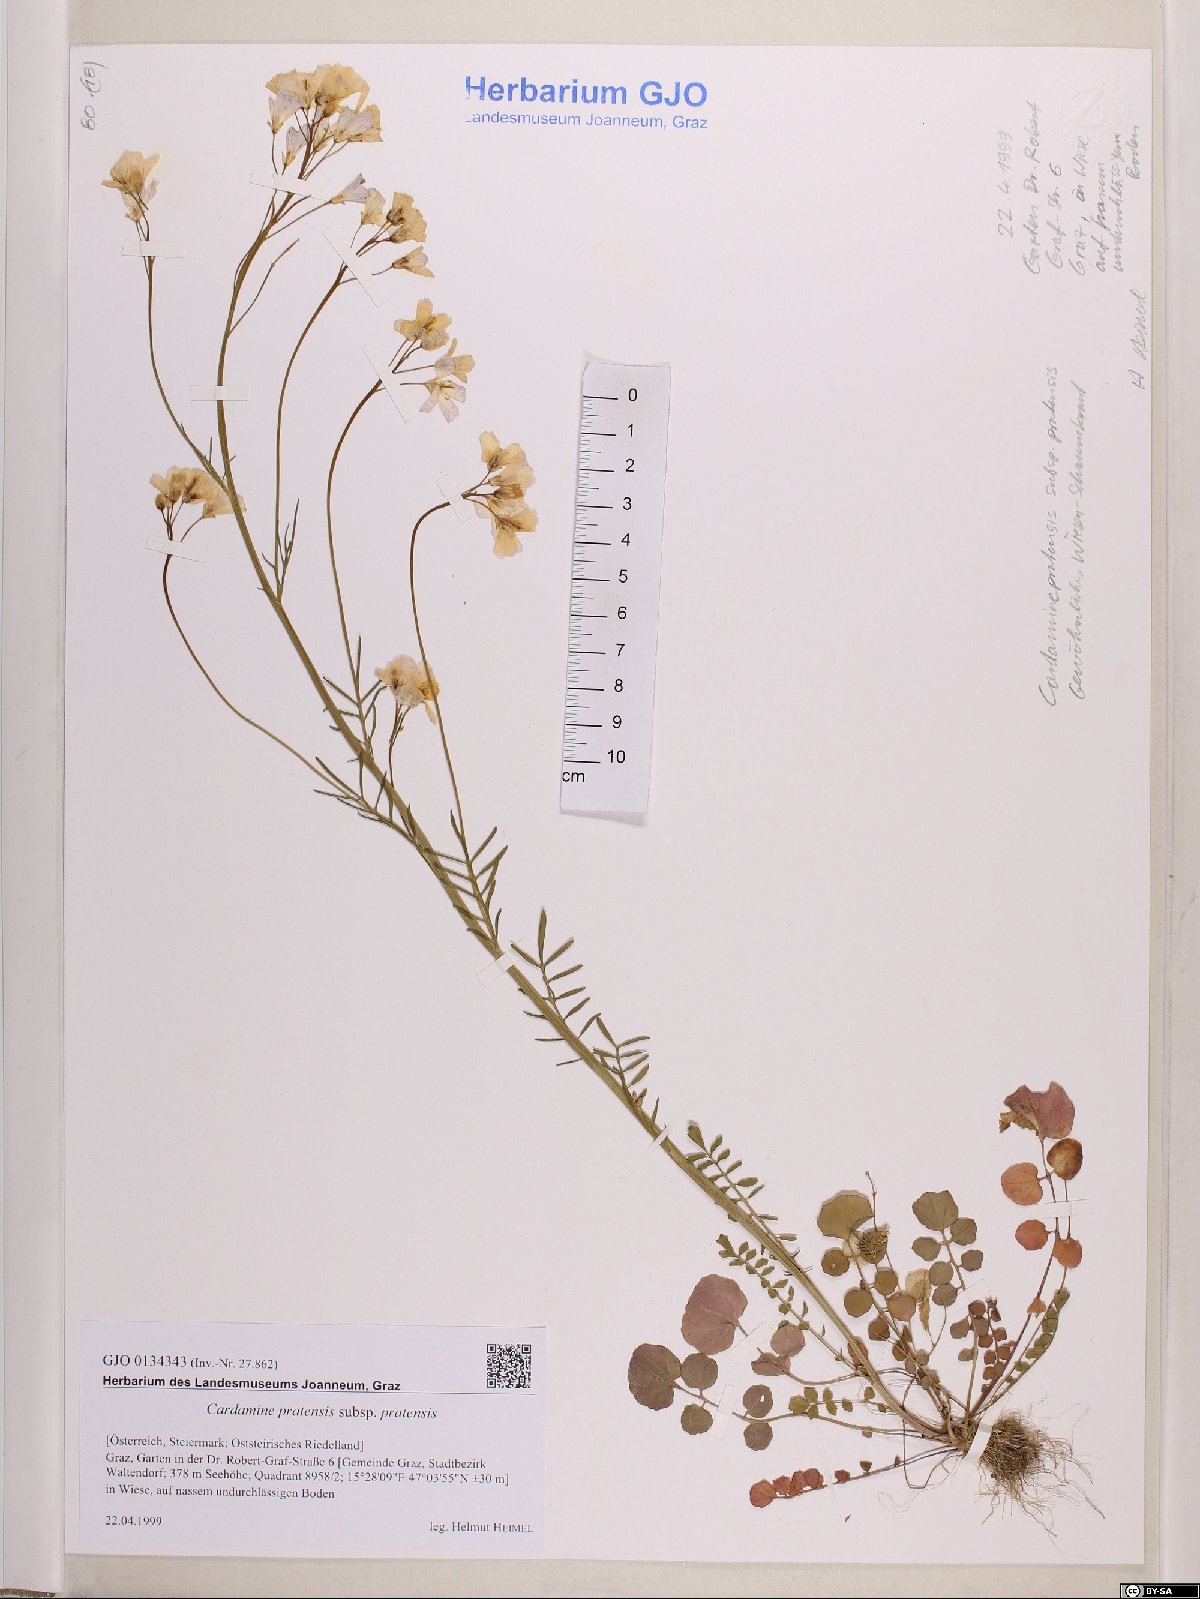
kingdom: Plantae
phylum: Tracheophyta
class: Magnoliopsida
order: Brassicales
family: Brassicaceae
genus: Cardamine
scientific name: Cardamine pratensis
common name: Cuckoo flower
